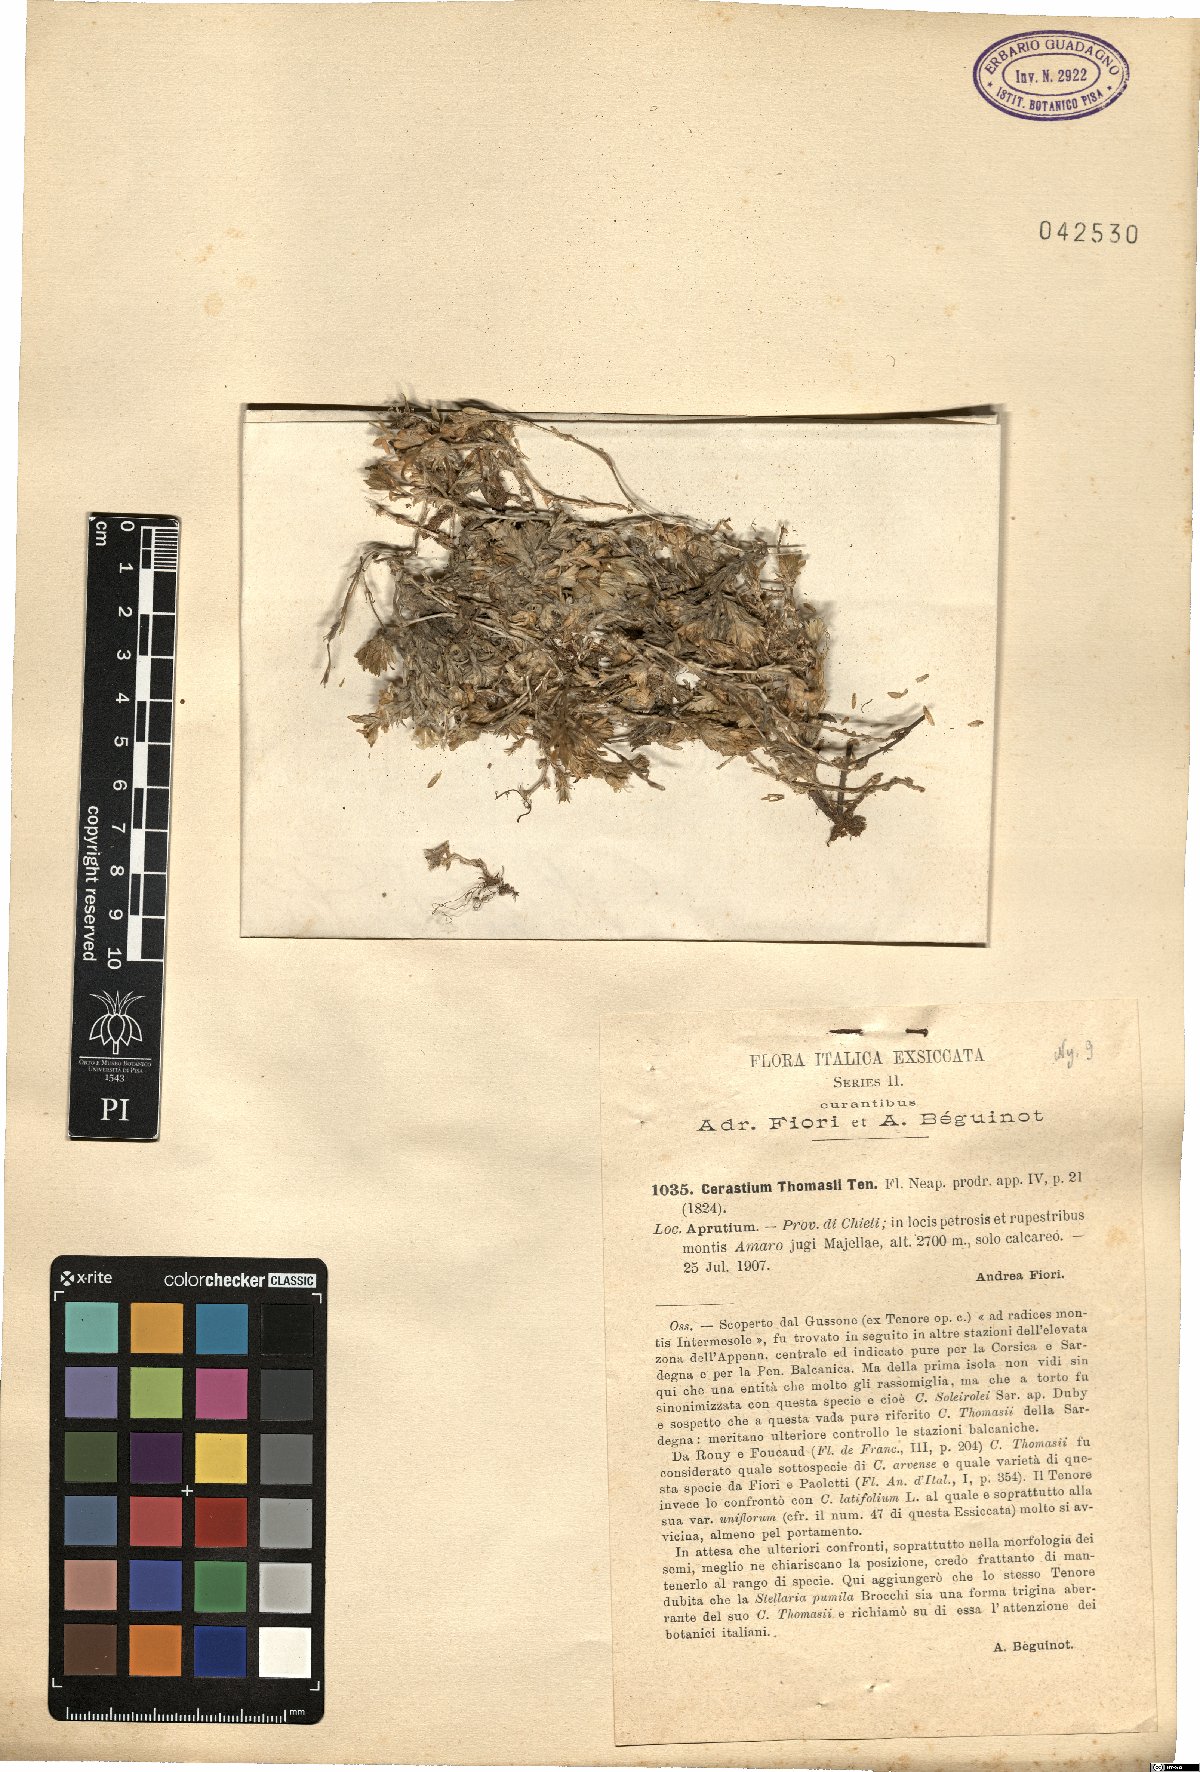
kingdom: Plantae
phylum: Tracheophyta
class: Magnoliopsida
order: Caryophyllales
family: Caryophyllaceae
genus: Cerastium
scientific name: Cerastium thomasii
